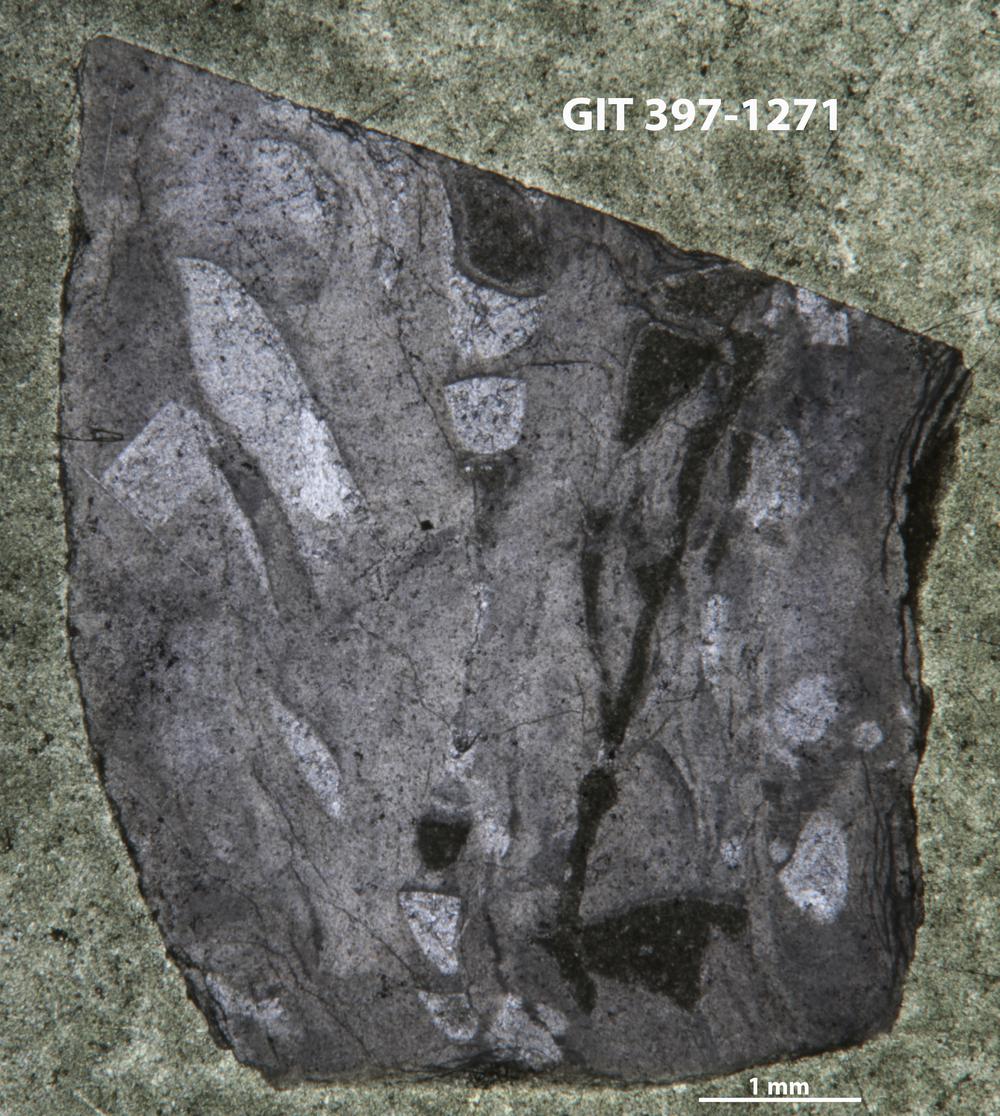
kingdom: Animalia
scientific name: Animalia
